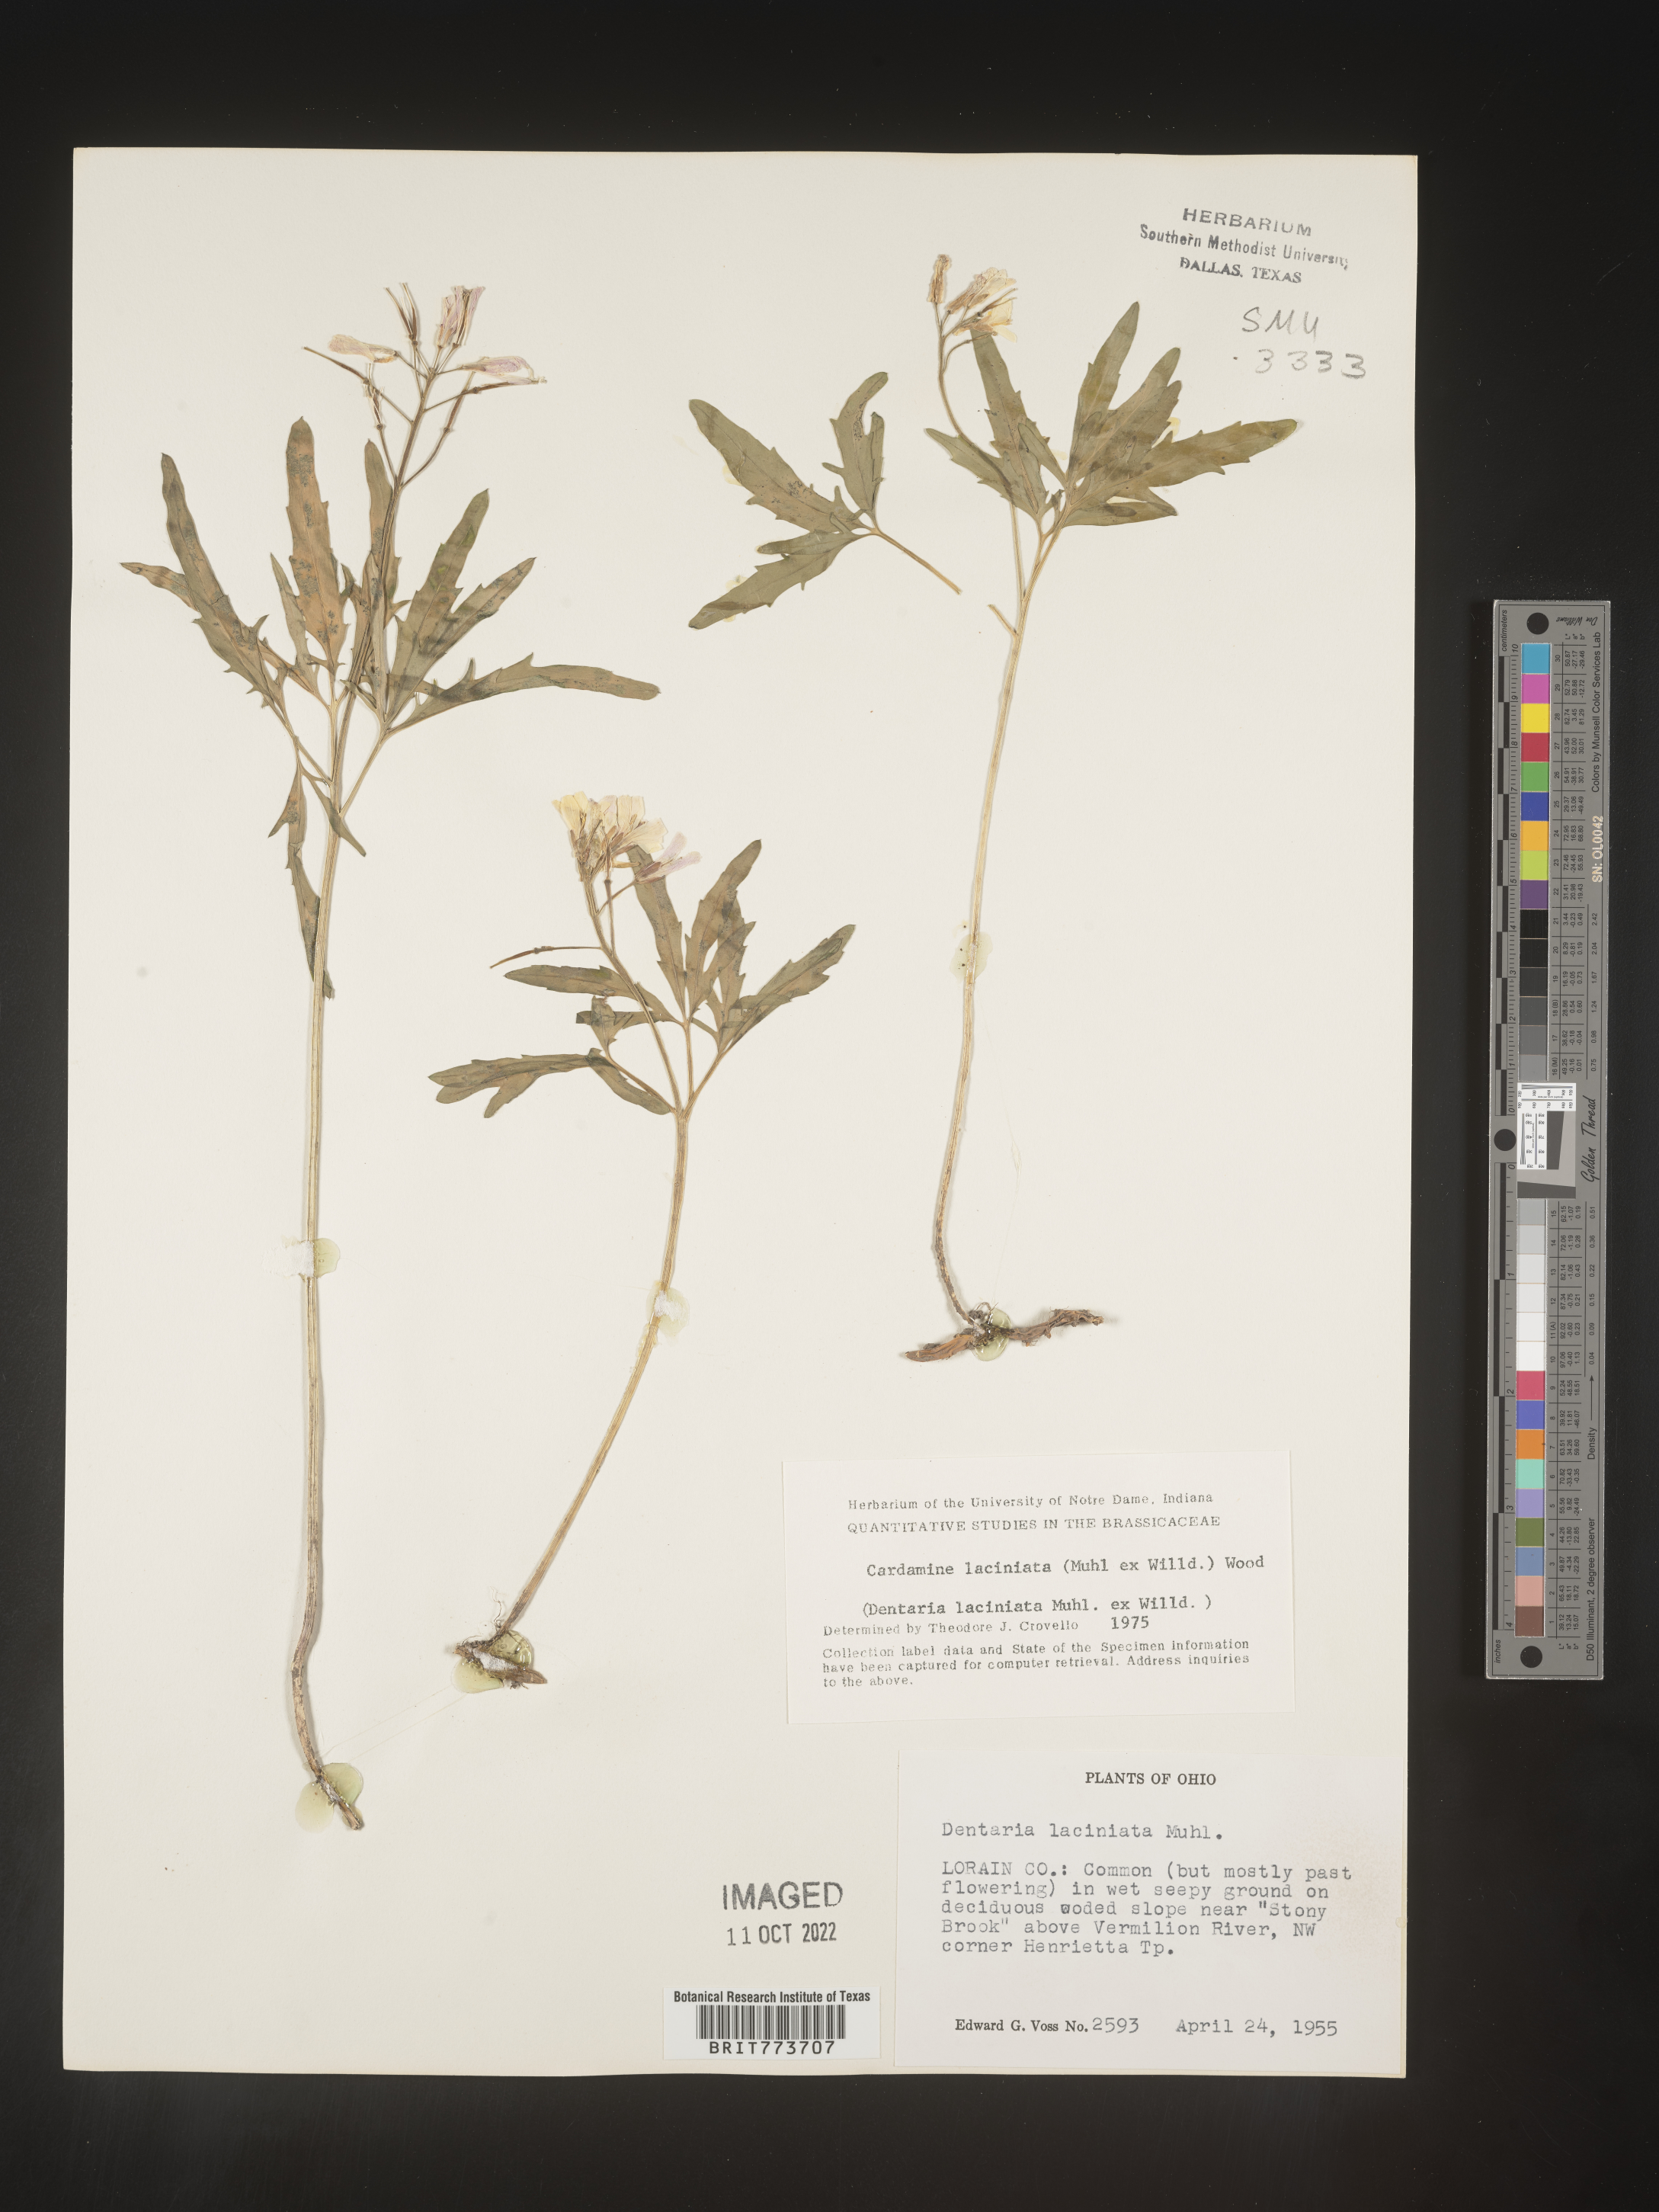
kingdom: Plantae
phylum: Tracheophyta
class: Magnoliopsida
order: Brassicales
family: Brassicaceae
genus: Rorippa
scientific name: Rorippa laciniata
